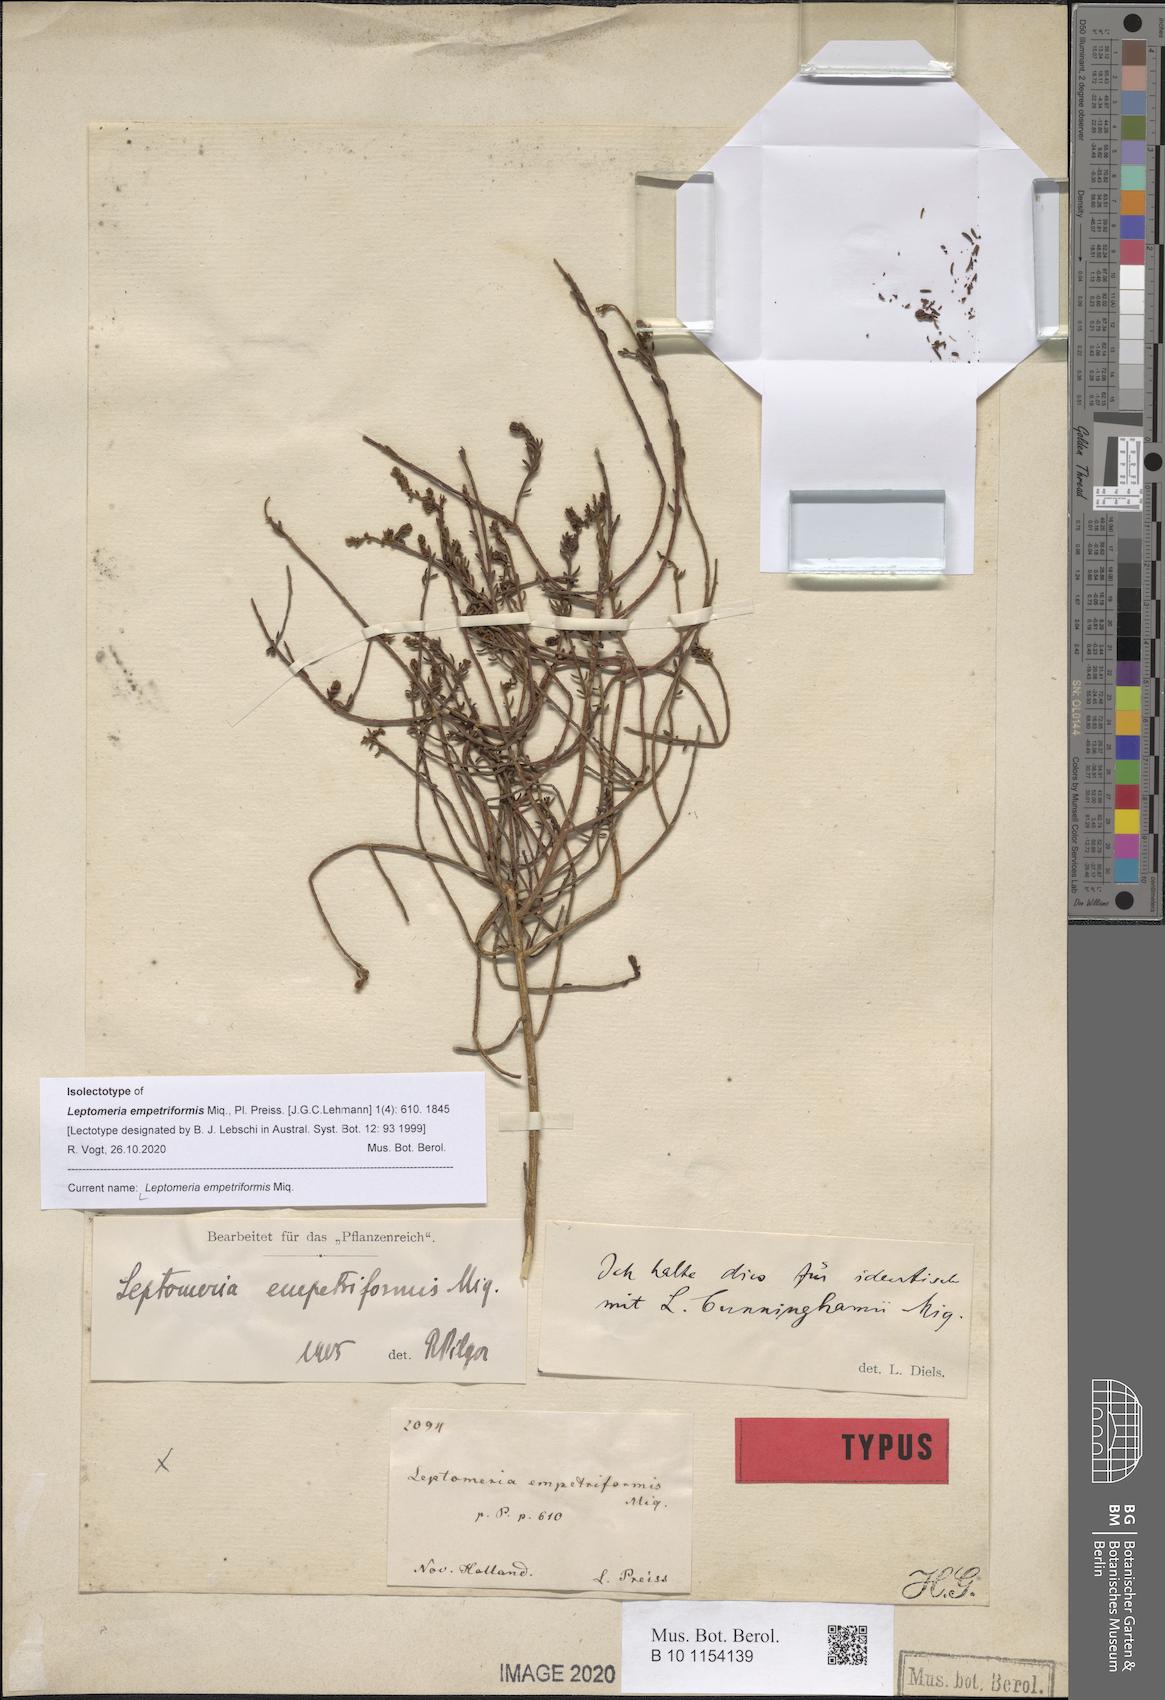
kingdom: Plantae
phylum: Tracheophyta
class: Magnoliopsida
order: Santalales
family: Amphorogynaceae
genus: Leptomeria
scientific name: Leptomeria empetriformis
